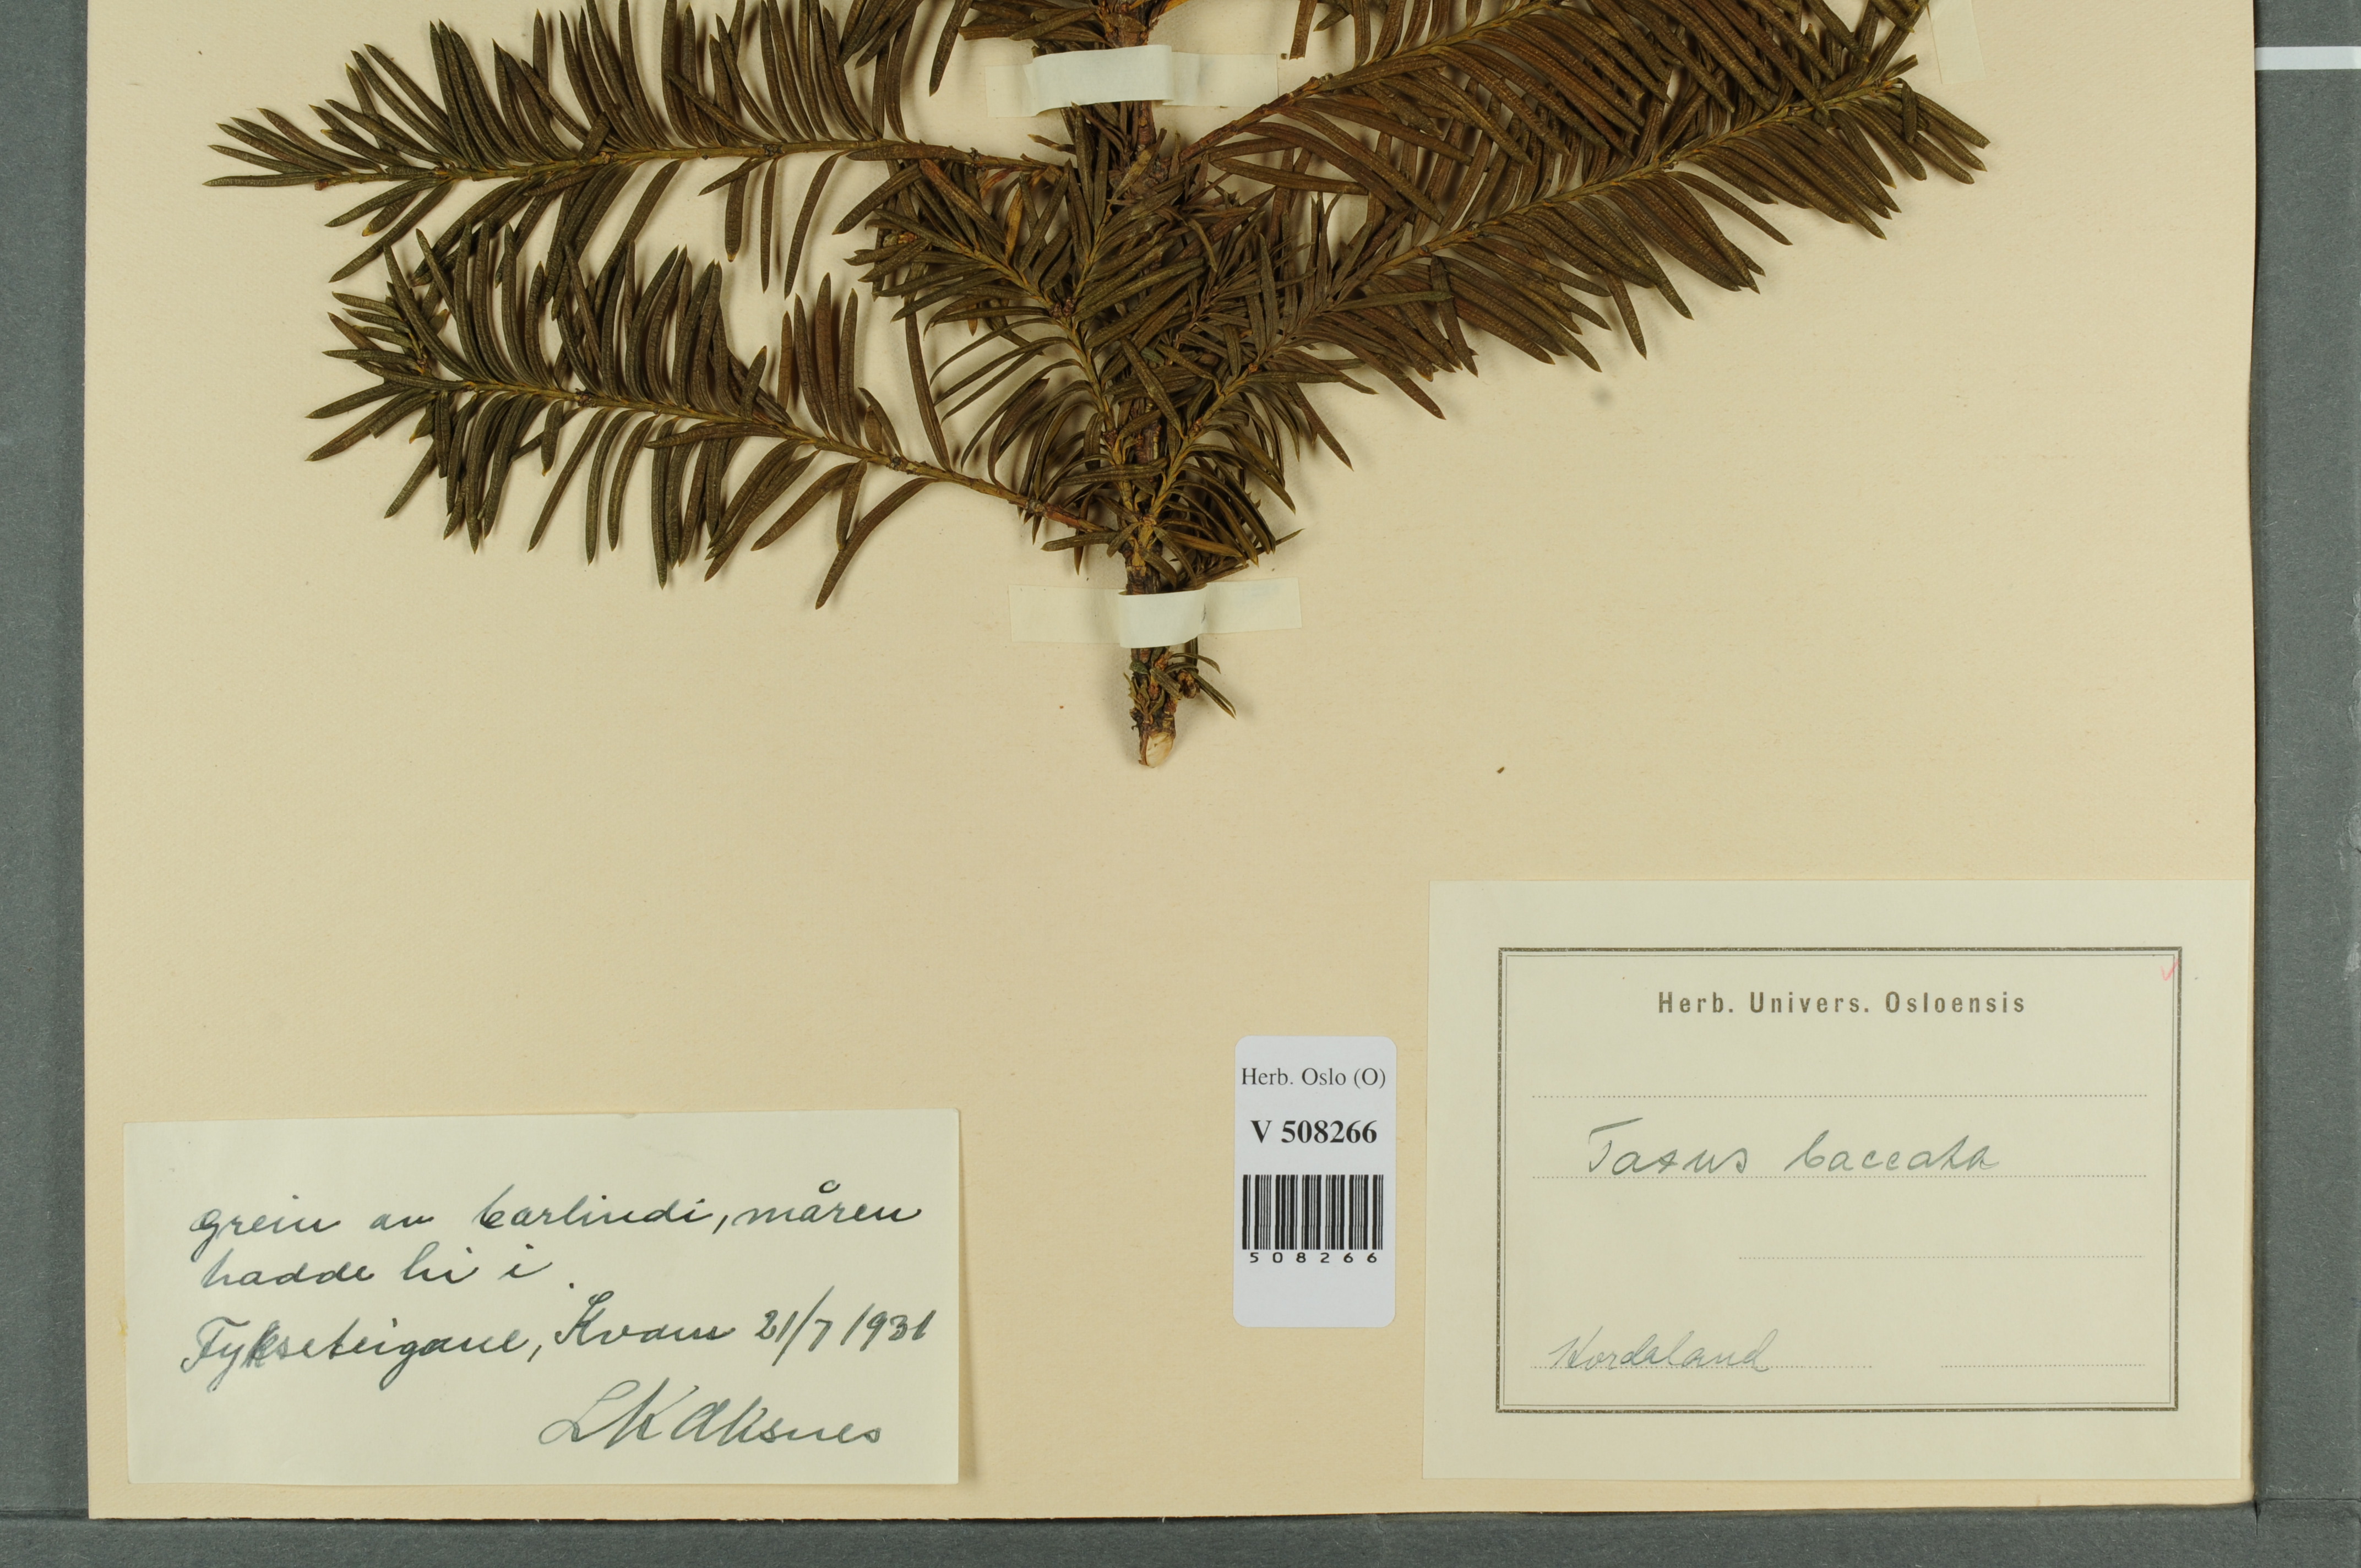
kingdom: Plantae
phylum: Tracheophyta
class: Pinopsida
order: Pinales
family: Taxaceae
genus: Taxus
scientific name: Taxus baccata
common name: Yew
